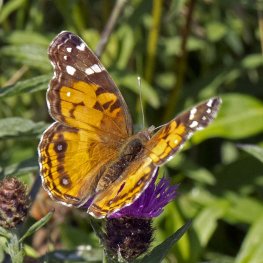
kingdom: Animalia
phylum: Arthropoda
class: Insecta
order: Lepidoptera
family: Nymphalidae
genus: Vanessa
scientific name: Vanessa virginiensis
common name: American Lady
